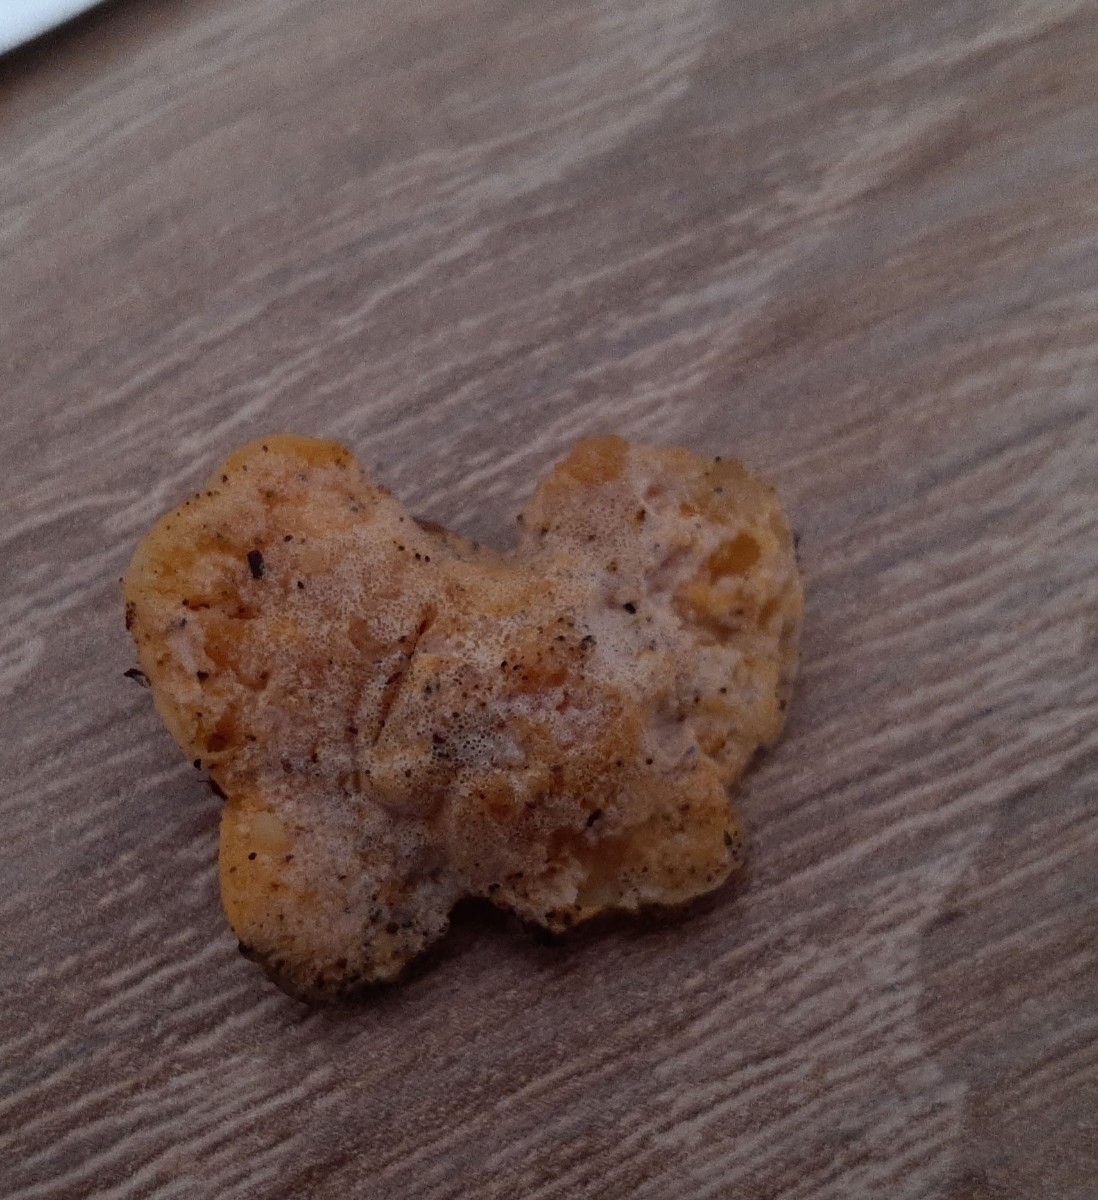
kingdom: Fungi
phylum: Ascomycota
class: Sordariomycetes
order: Hypocreales
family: Hypocreaceae
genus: Protocrea
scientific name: Protocrea pallida
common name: bleg kødkerne
